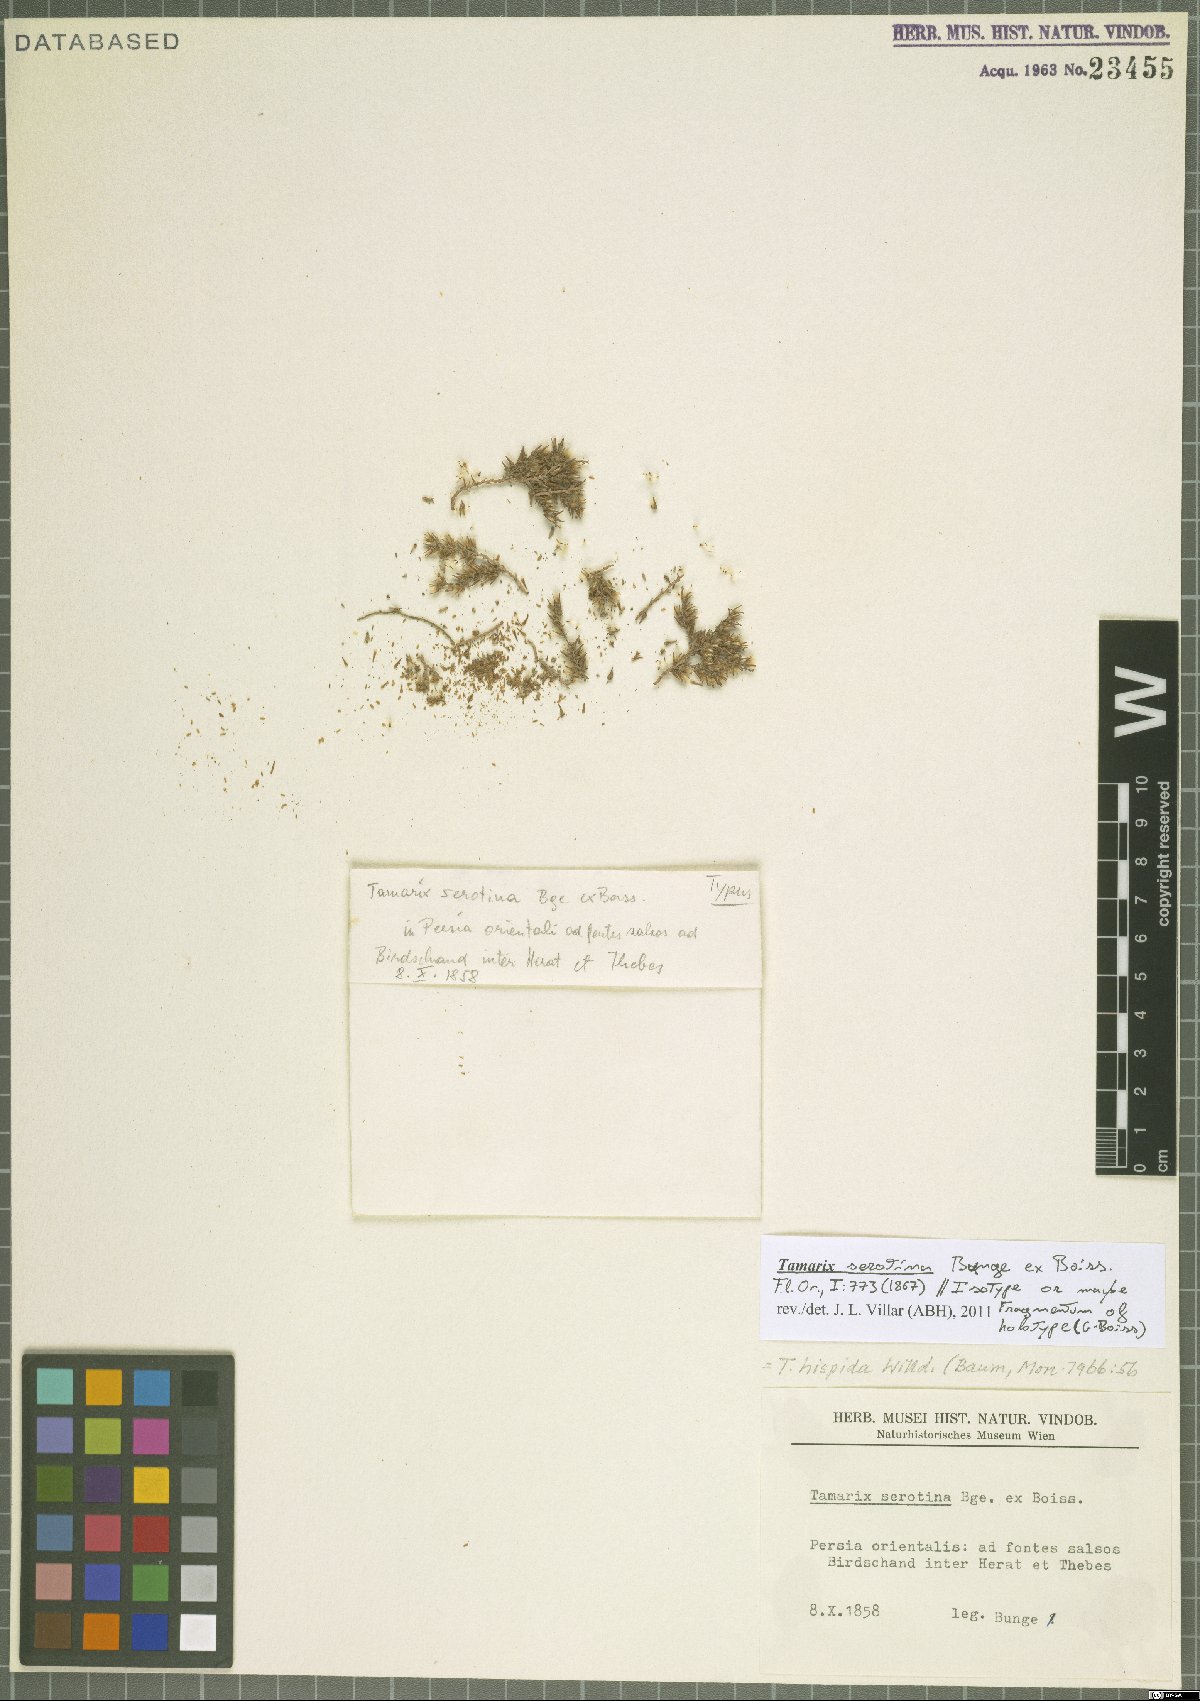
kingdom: Plantae
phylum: Tracheophyta
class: Magnoliopsida
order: Caryophyllales
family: Tamaricaceae
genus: Tamarix
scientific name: Tamarix hispida
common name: Kashgar tamarisk
